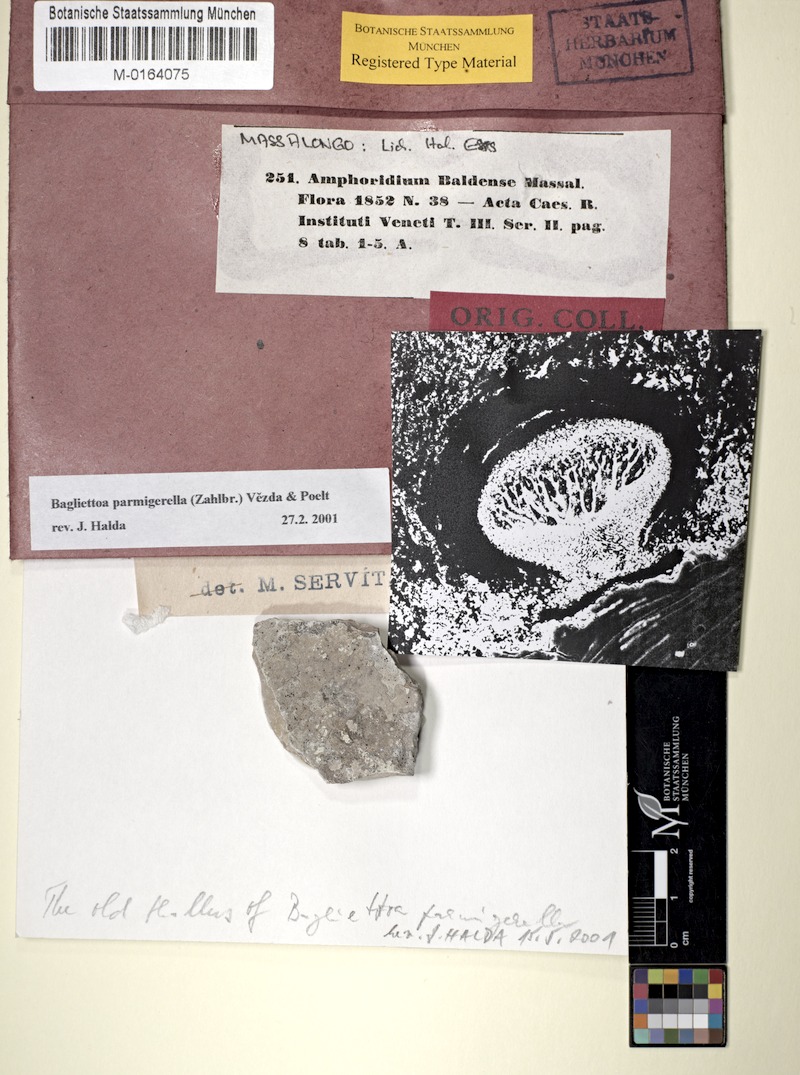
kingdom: Fungi
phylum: Ascomycota
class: Eurotiomycetes
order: Verrucariales
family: Verrucariaceae
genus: Bagliettoa
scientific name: Bagliettoa baldensis
